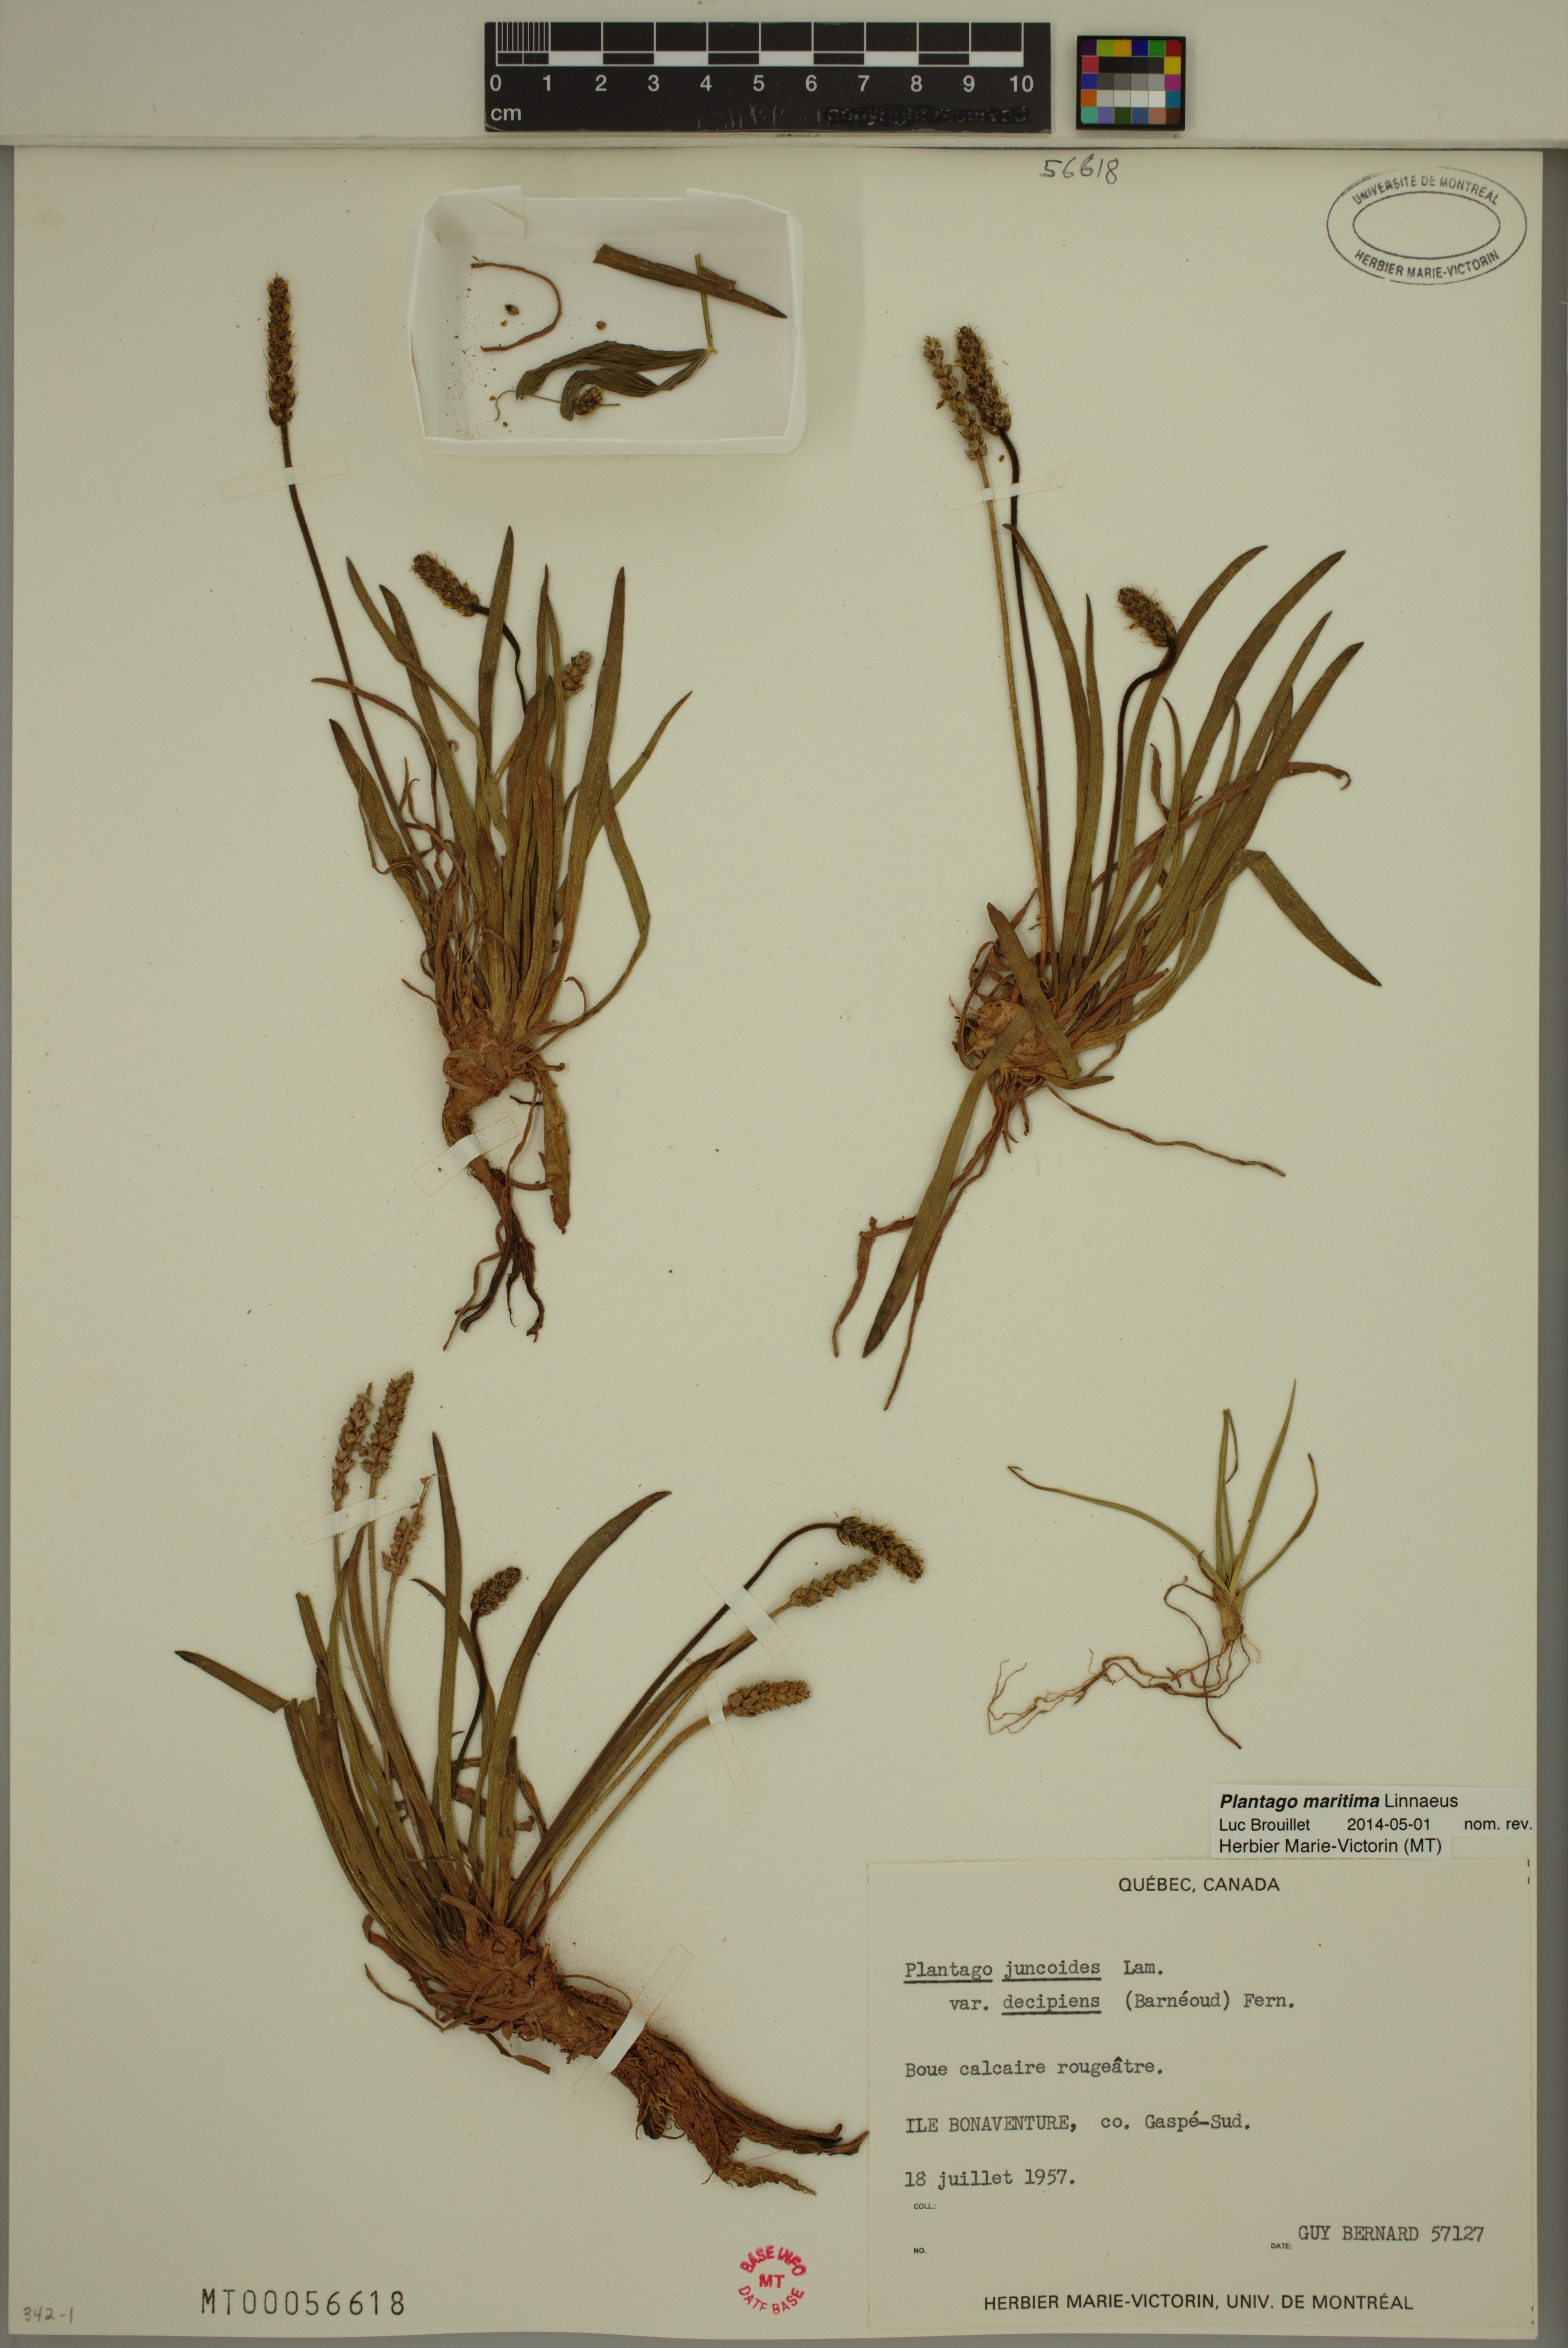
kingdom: Plantae
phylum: Tracheophyta
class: Magnoliopsida
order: Lamiales
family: Plantaginaceae
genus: Plantago
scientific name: Plantago maritima
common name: Sea plantain
